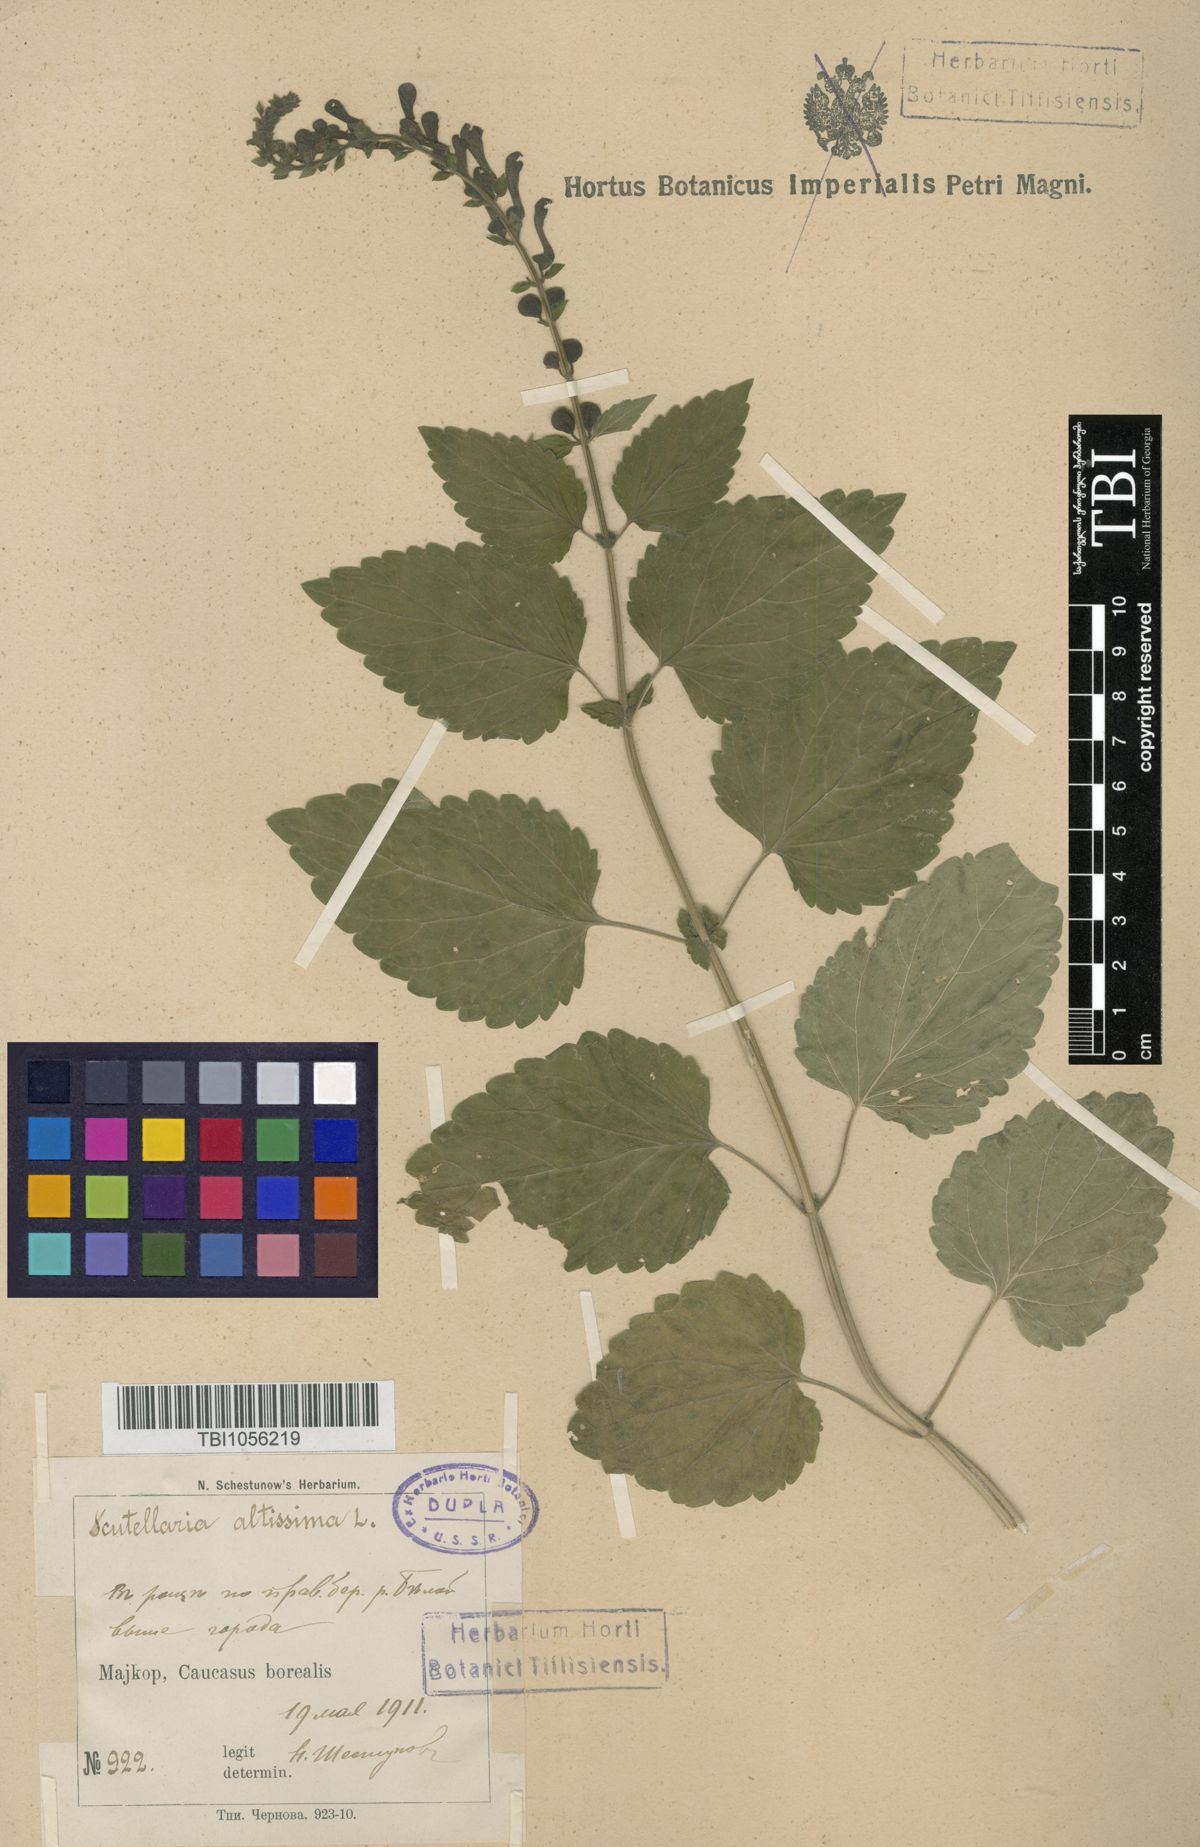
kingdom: Plantae
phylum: Tracheophyta
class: Magnoliopsida
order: Lamiales
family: Lamiaceae
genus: Scutellaria
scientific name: Scutellaria altissima
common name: Somerset skullcap
